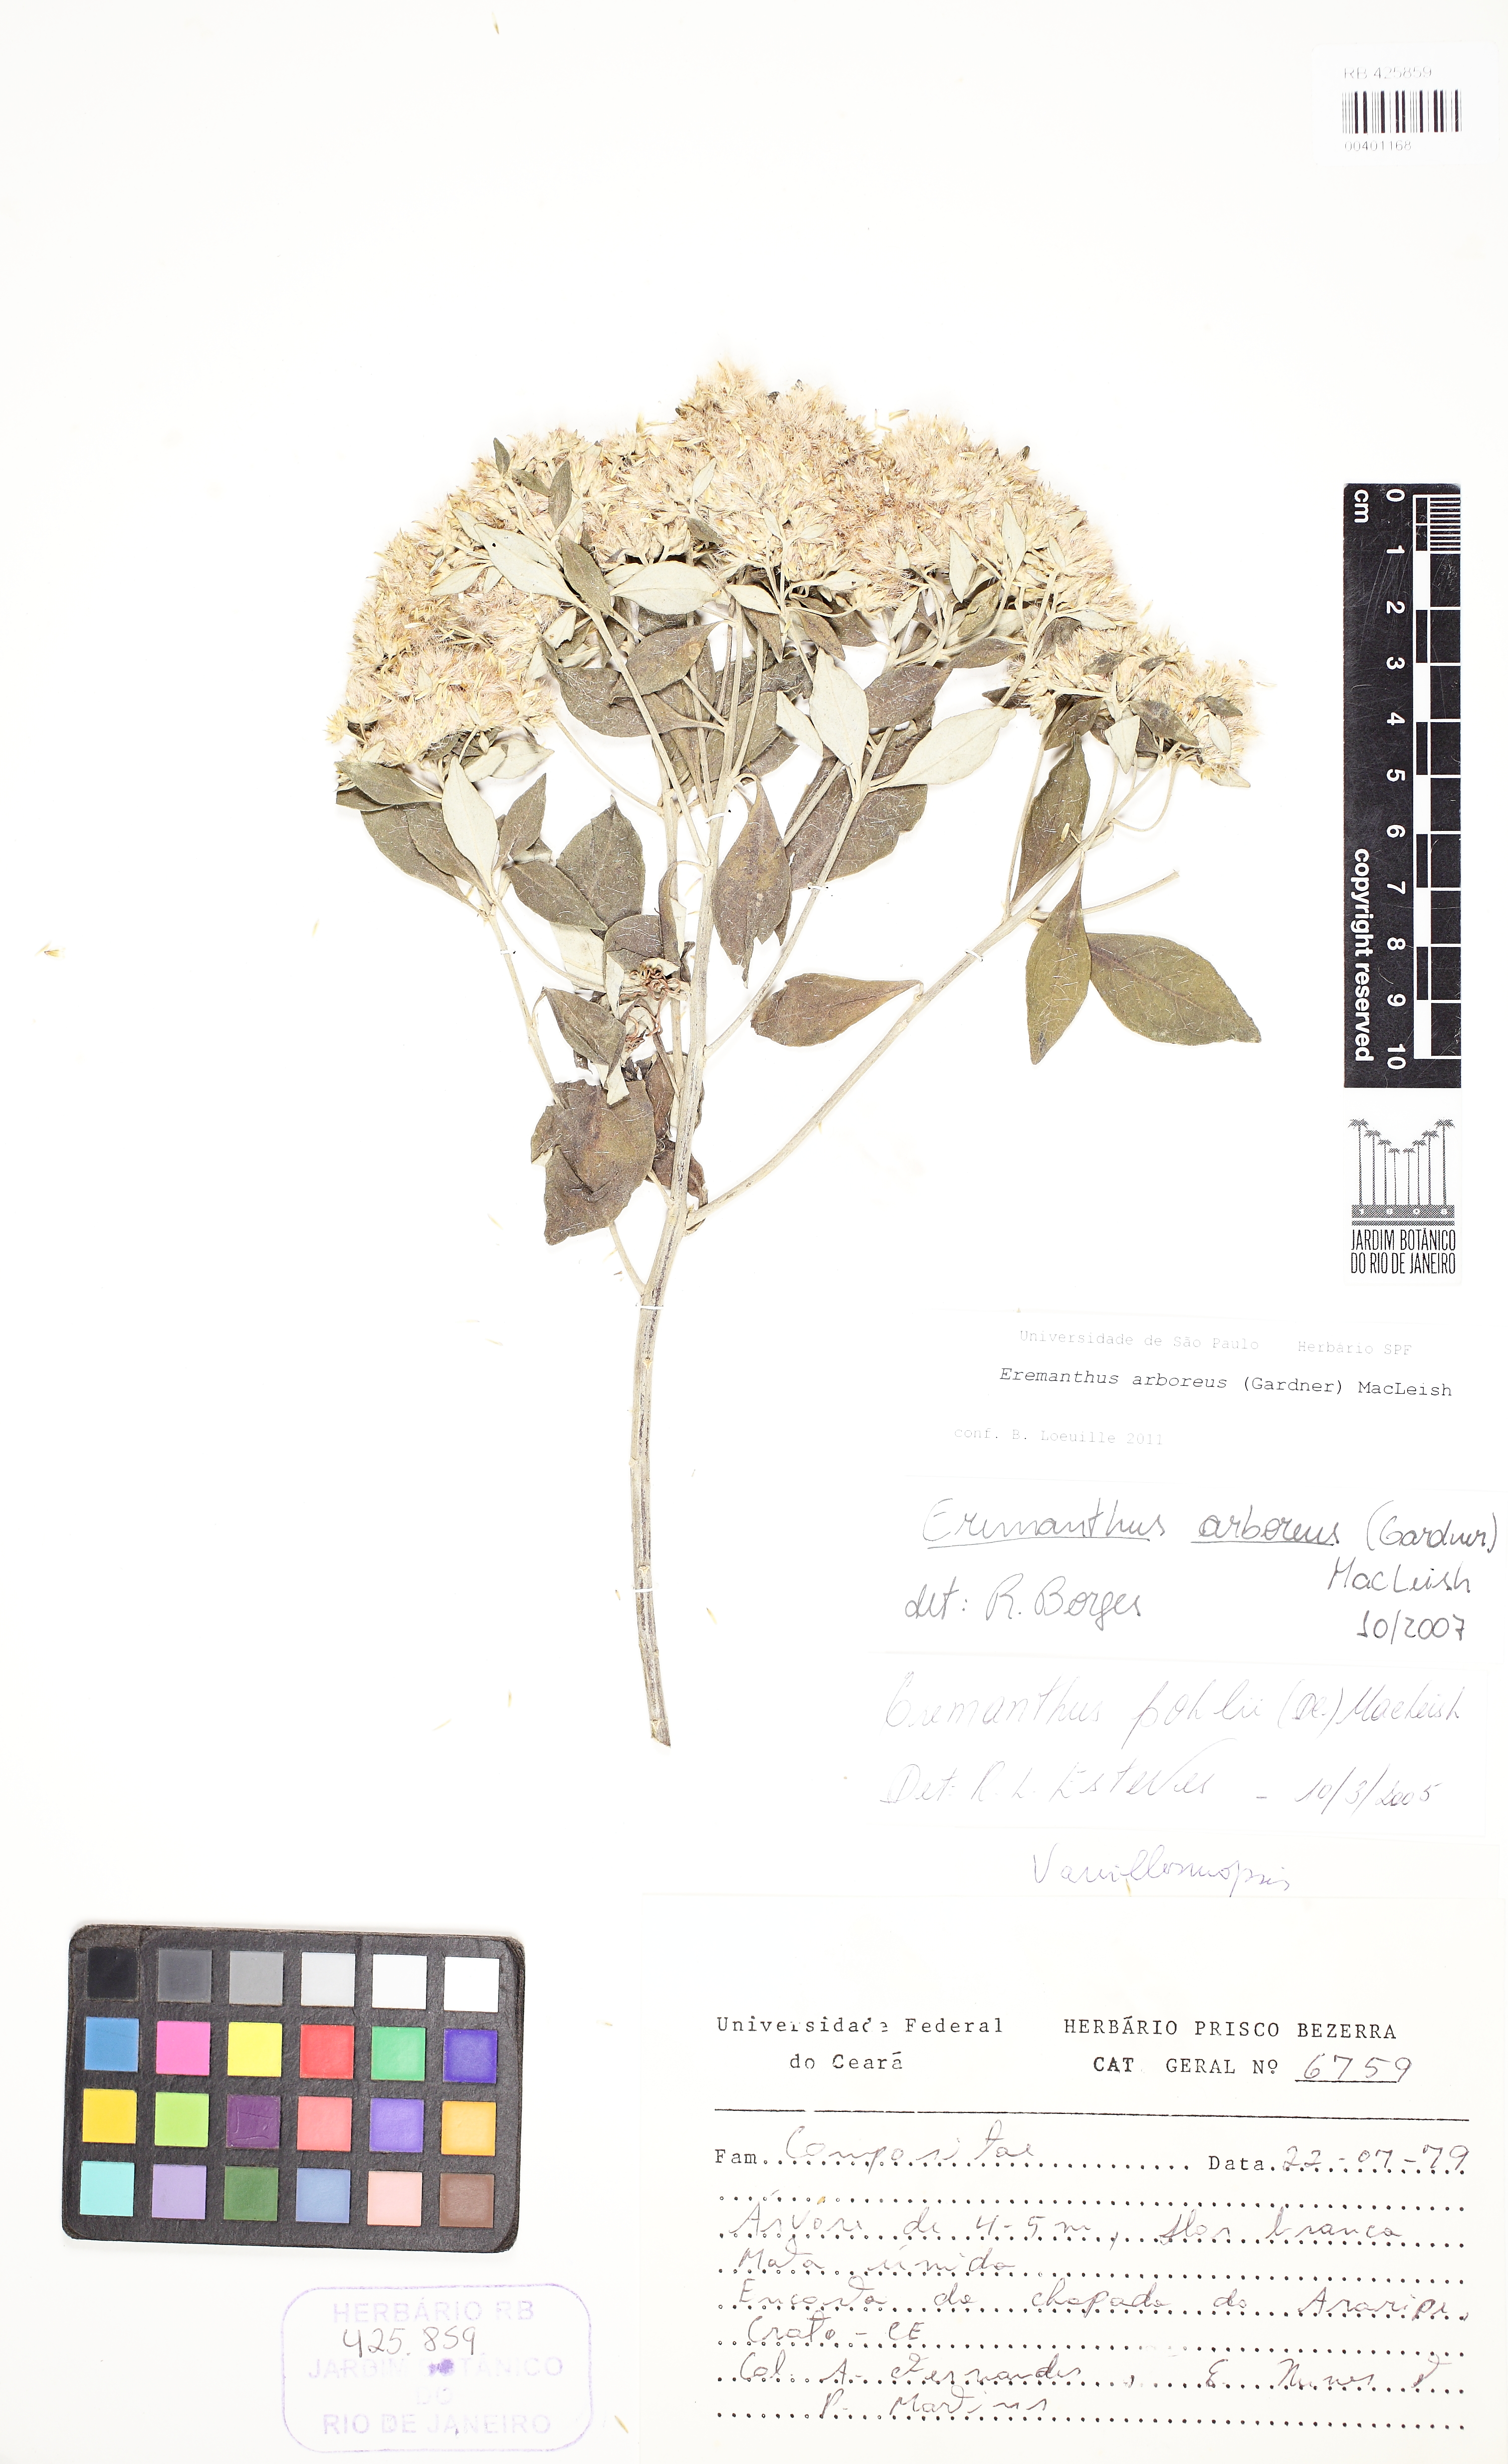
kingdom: Plantae
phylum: Tracheophyta
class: Magnoliopsida
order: Asterales
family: Asteraceae
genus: Eremanthus
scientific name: Eremanthus arboreus
